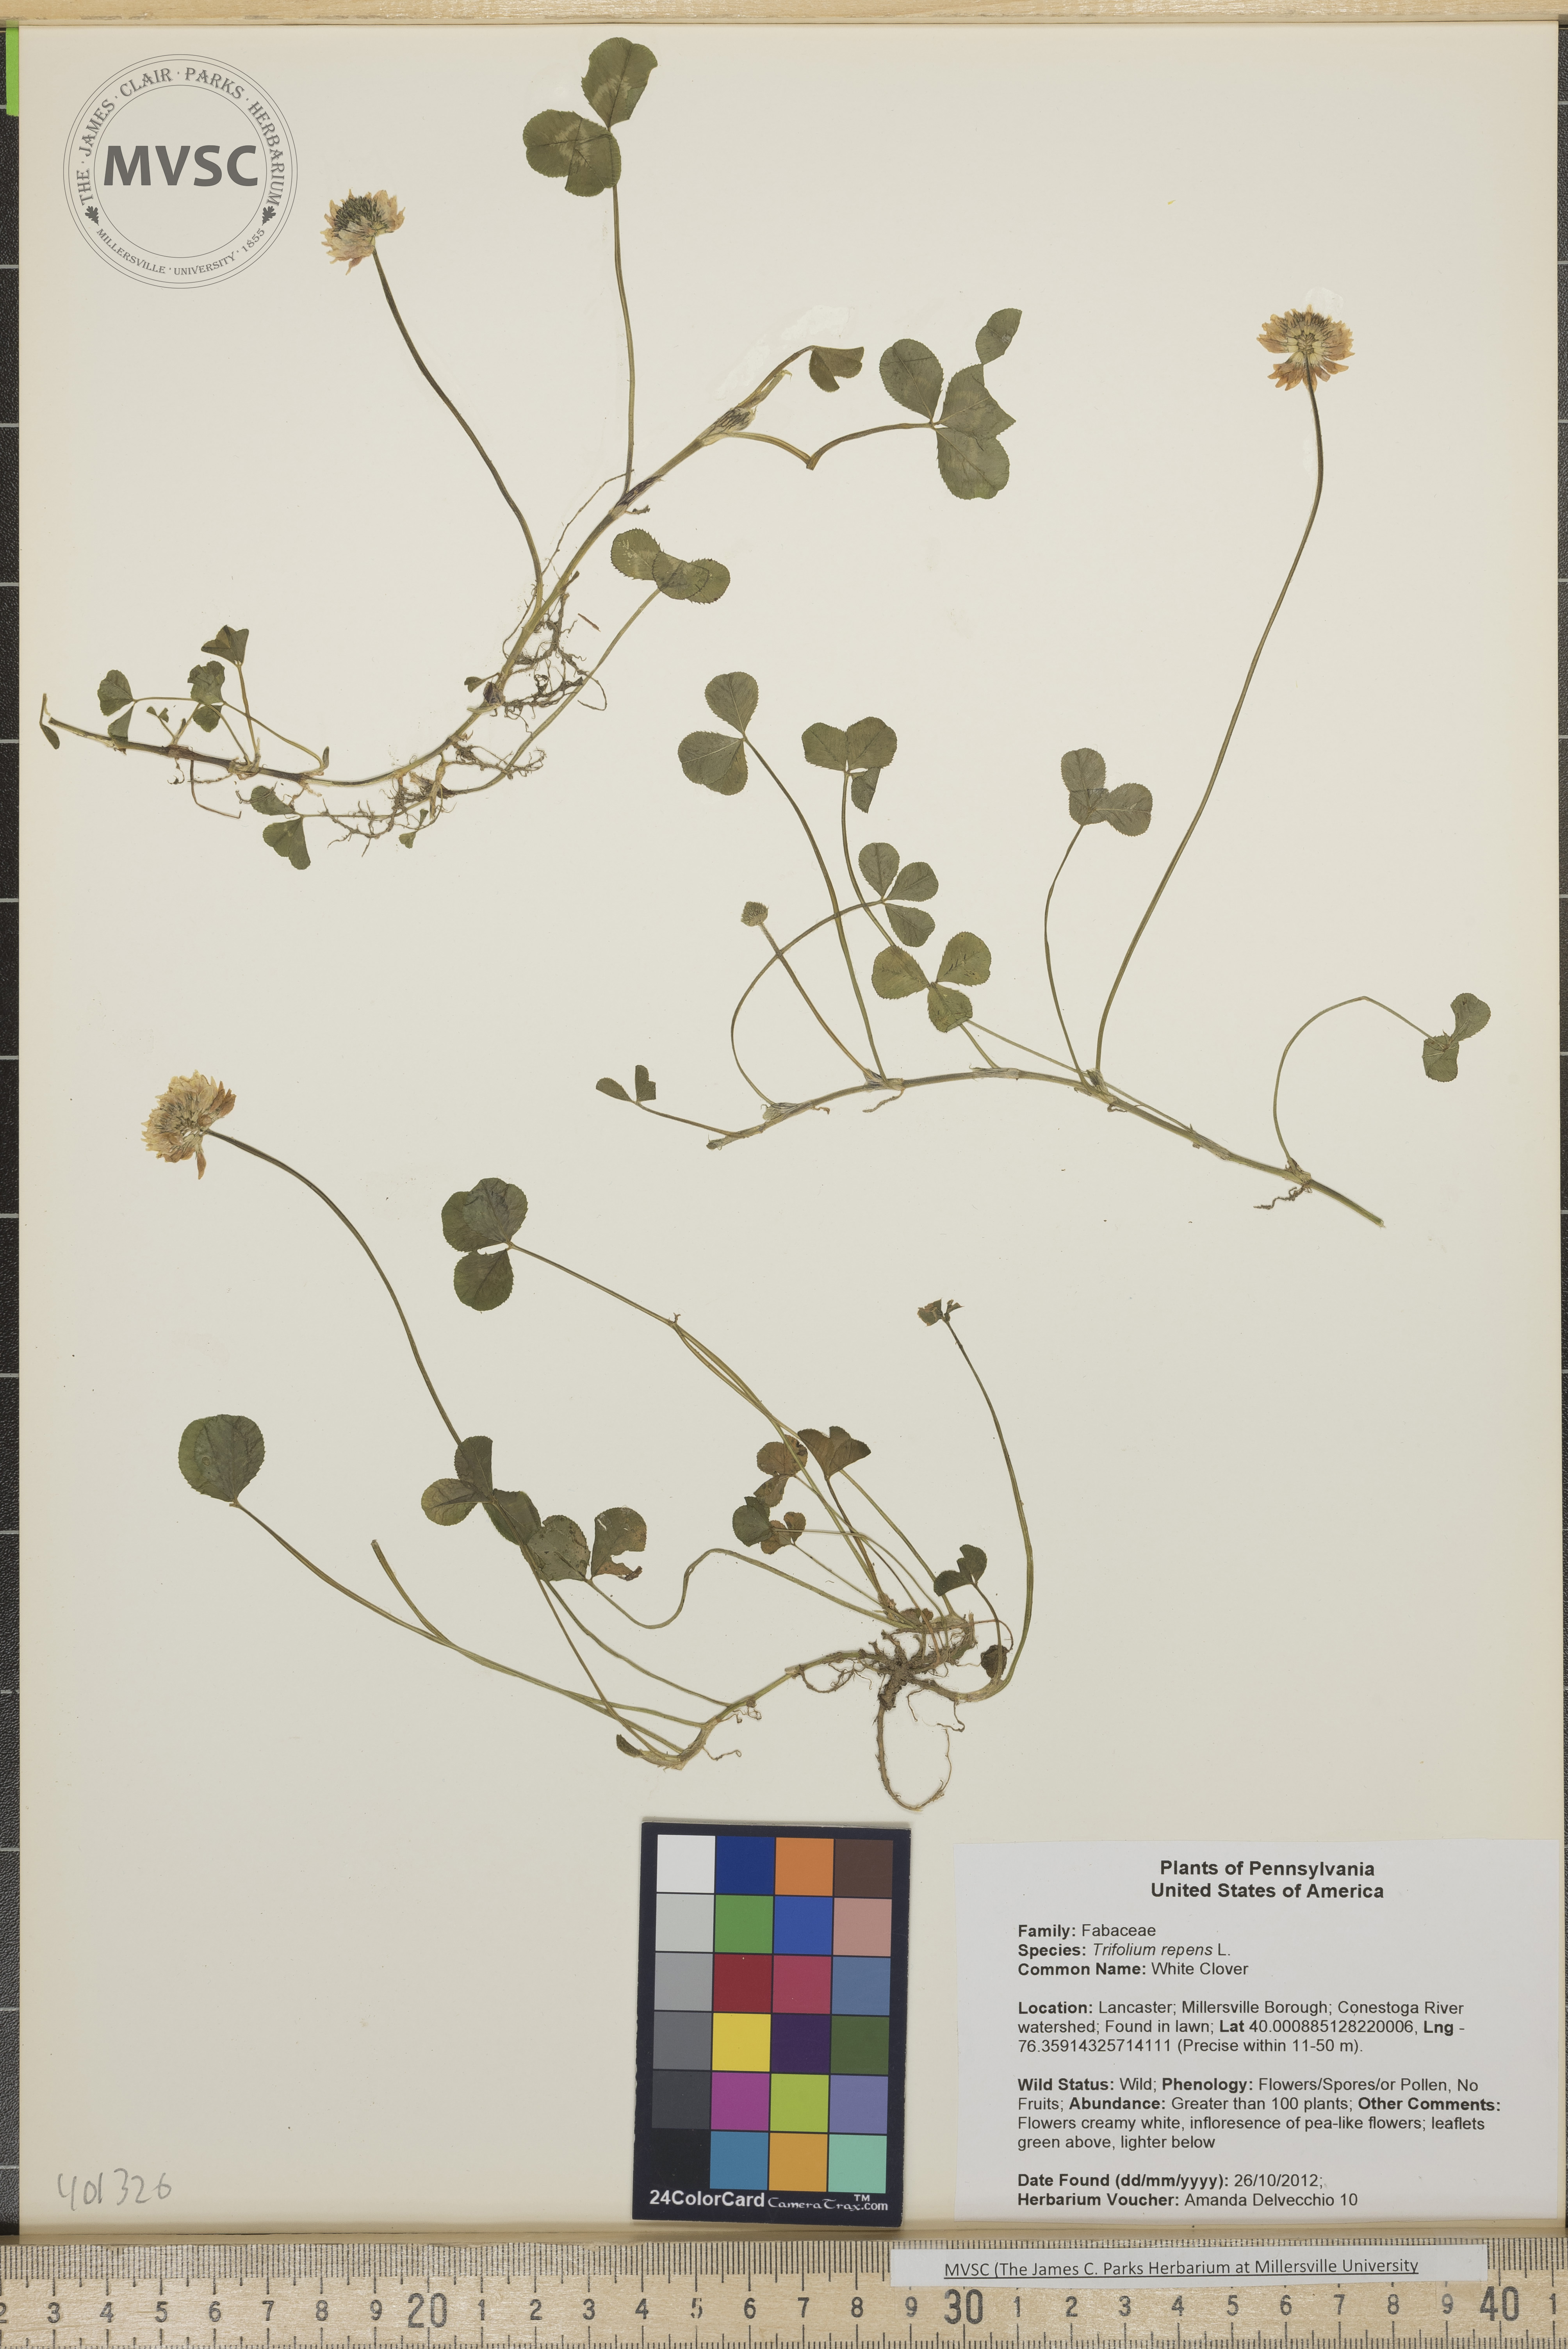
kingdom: Plantae
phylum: Tracheophyta
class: Magnoliopsida
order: Fabales
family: Fabaceae
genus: Trifolium
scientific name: Trifolium repens
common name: White Clover
